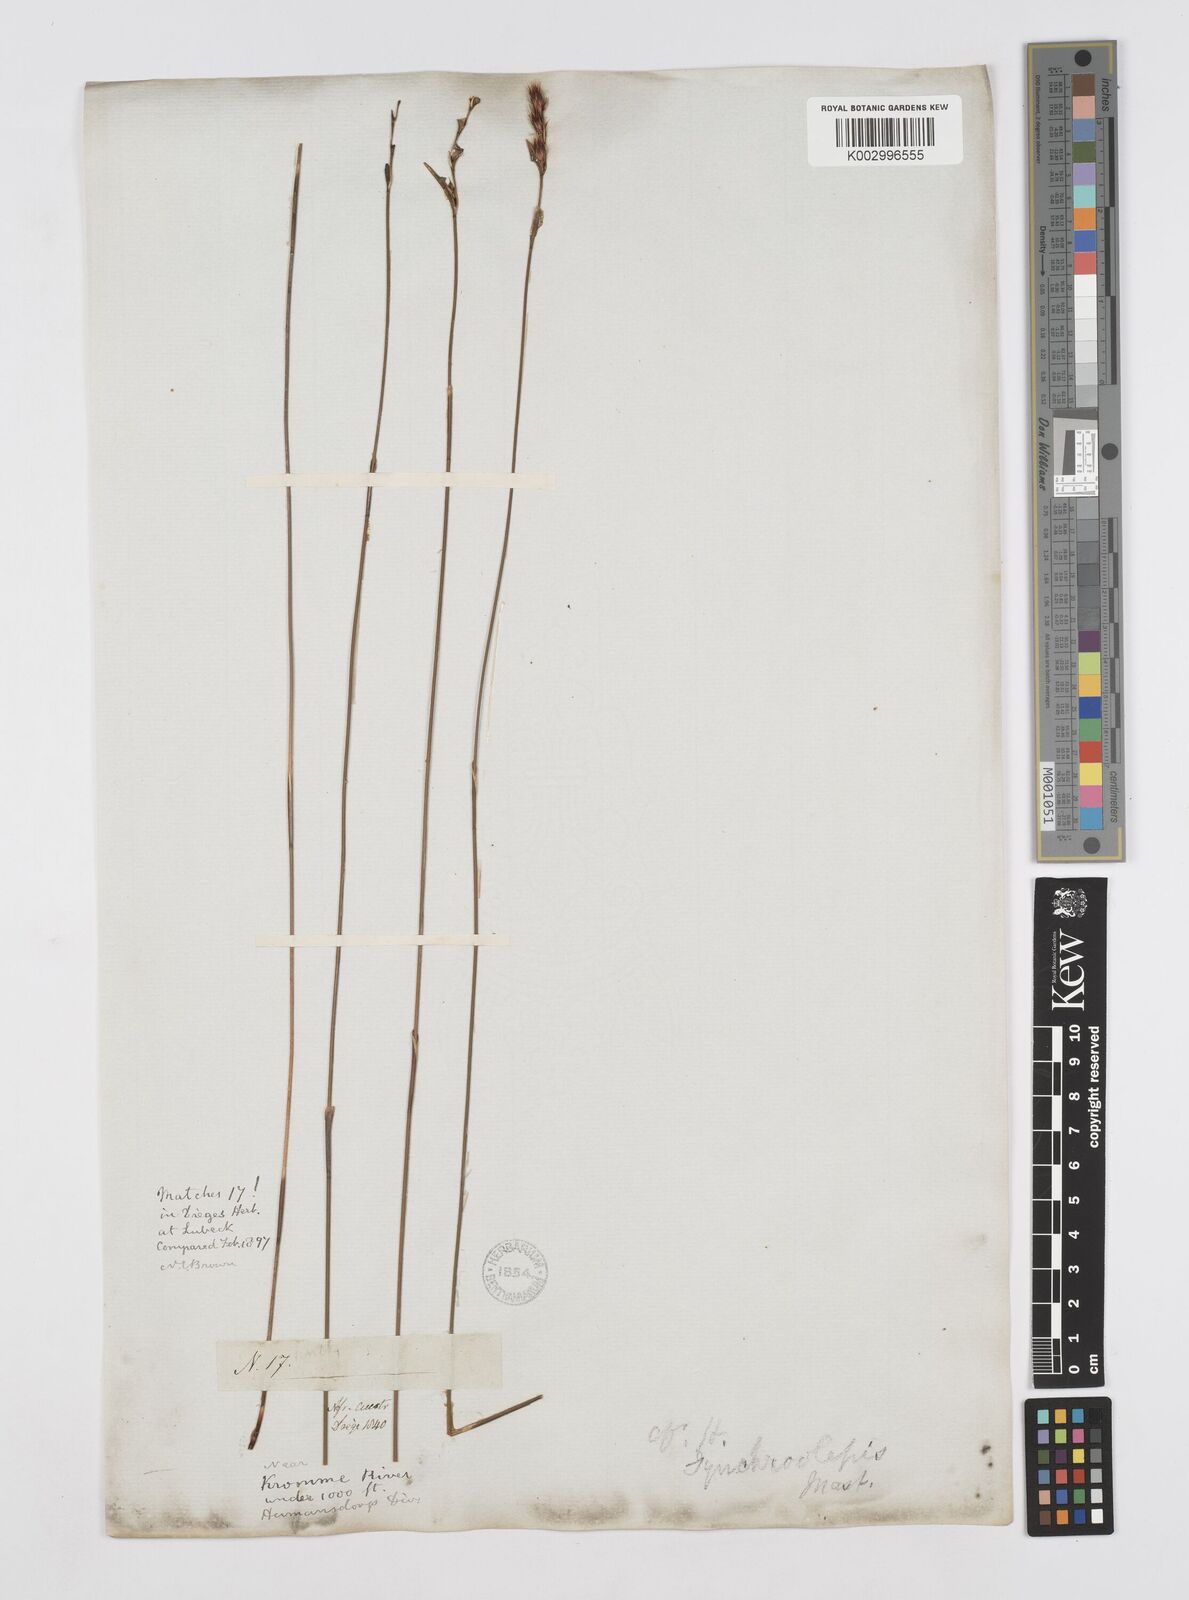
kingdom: Plantae
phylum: Tracheophyta
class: Liliopsida
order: Poales
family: Restionaceae
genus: Hypodiscus
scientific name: Hypodiscus synchroolepis
